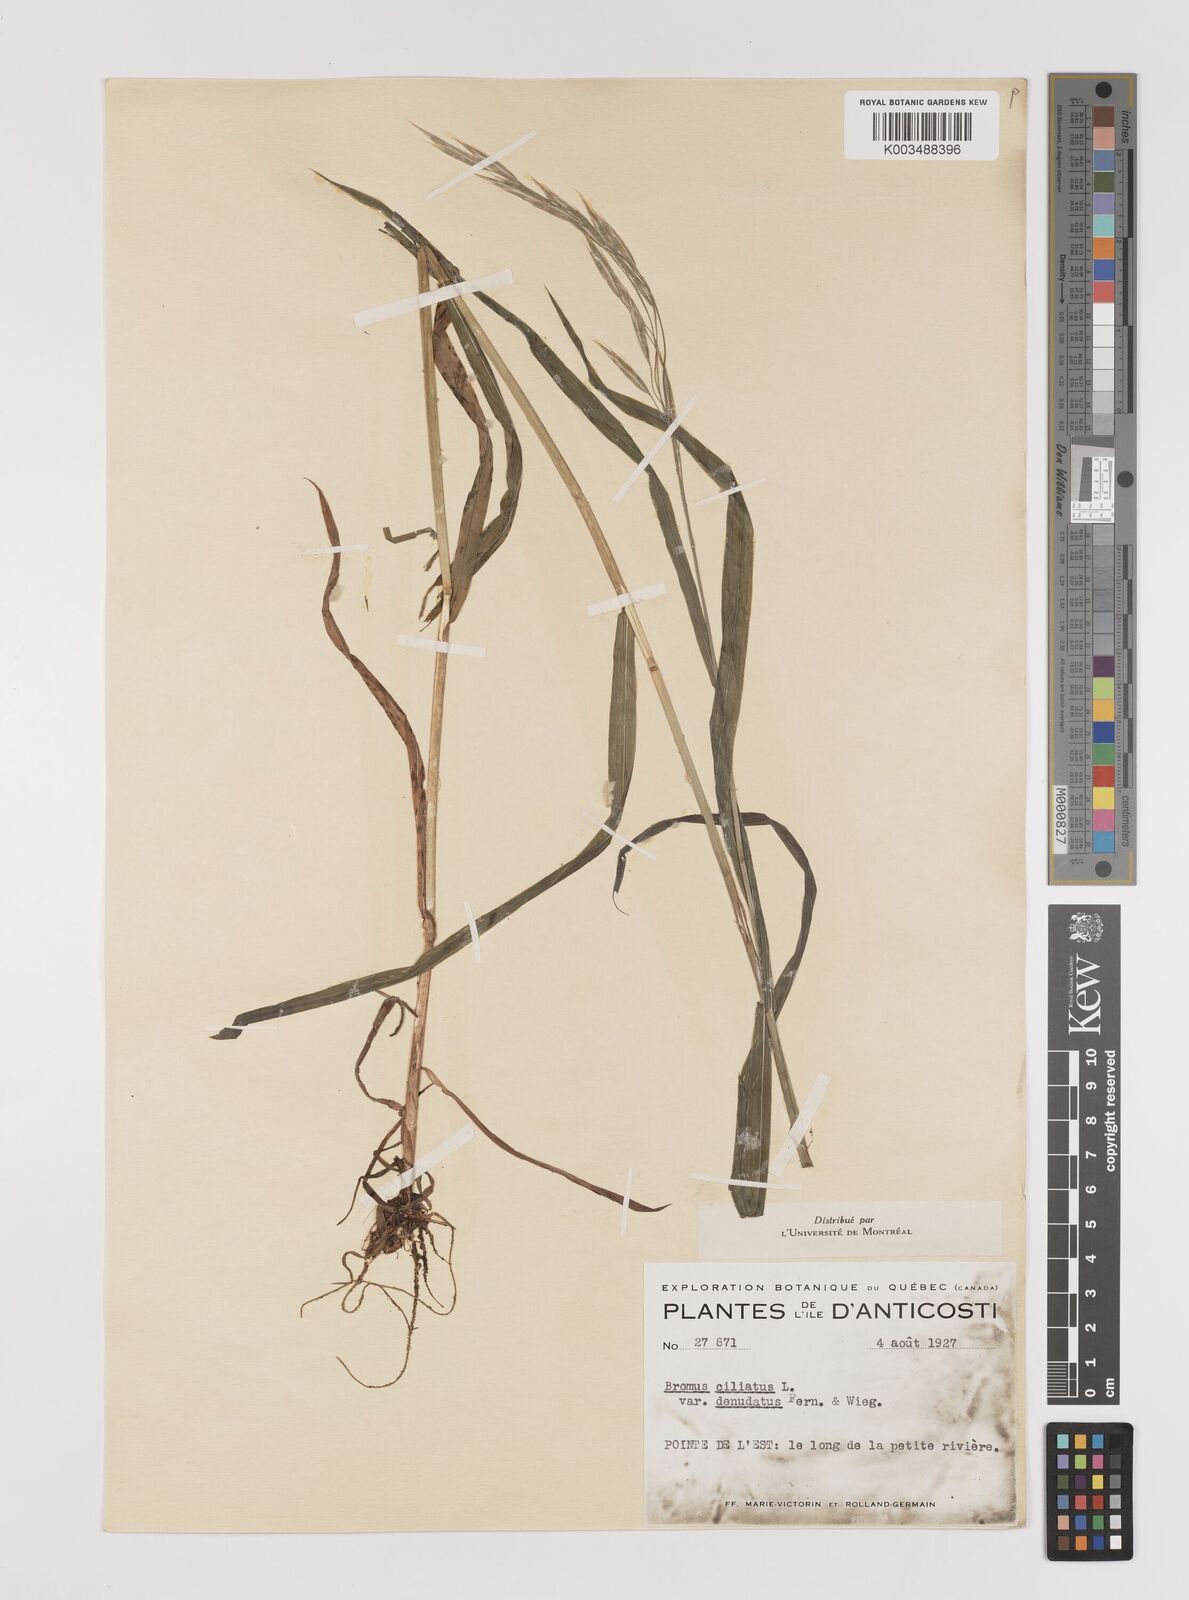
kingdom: Plantae
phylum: Tracheophyta
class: Liliopsida
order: Poales
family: Poaceae
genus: Bromus
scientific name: Bromus ciliatus
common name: Fringe brome
